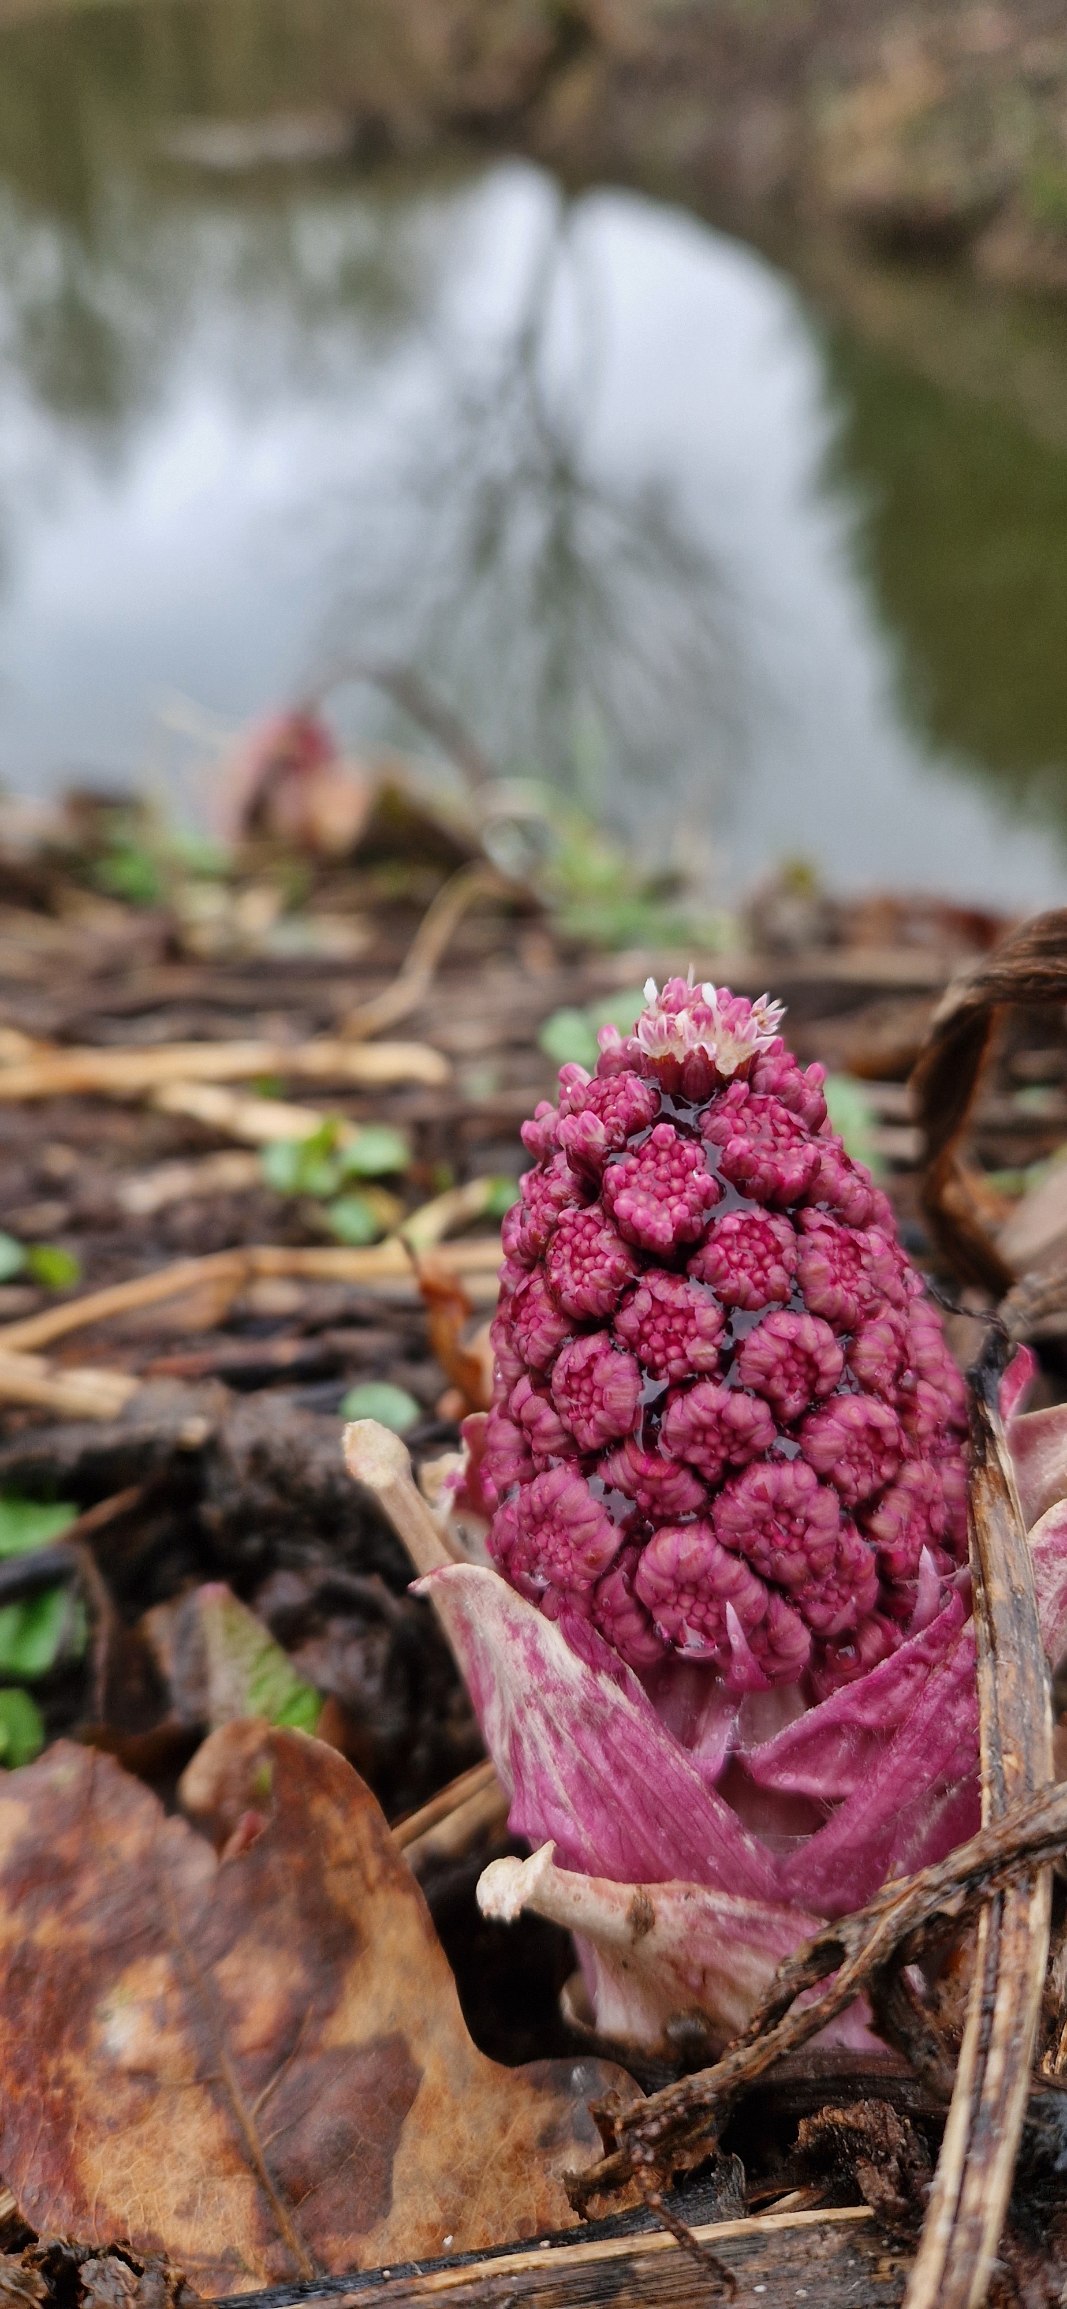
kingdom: Plantae
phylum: Tracheophyta
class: Magnoliopsida
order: Asterales
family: Asteraceae
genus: Petasites
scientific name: Petasites hybridus
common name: Rød hestehov
